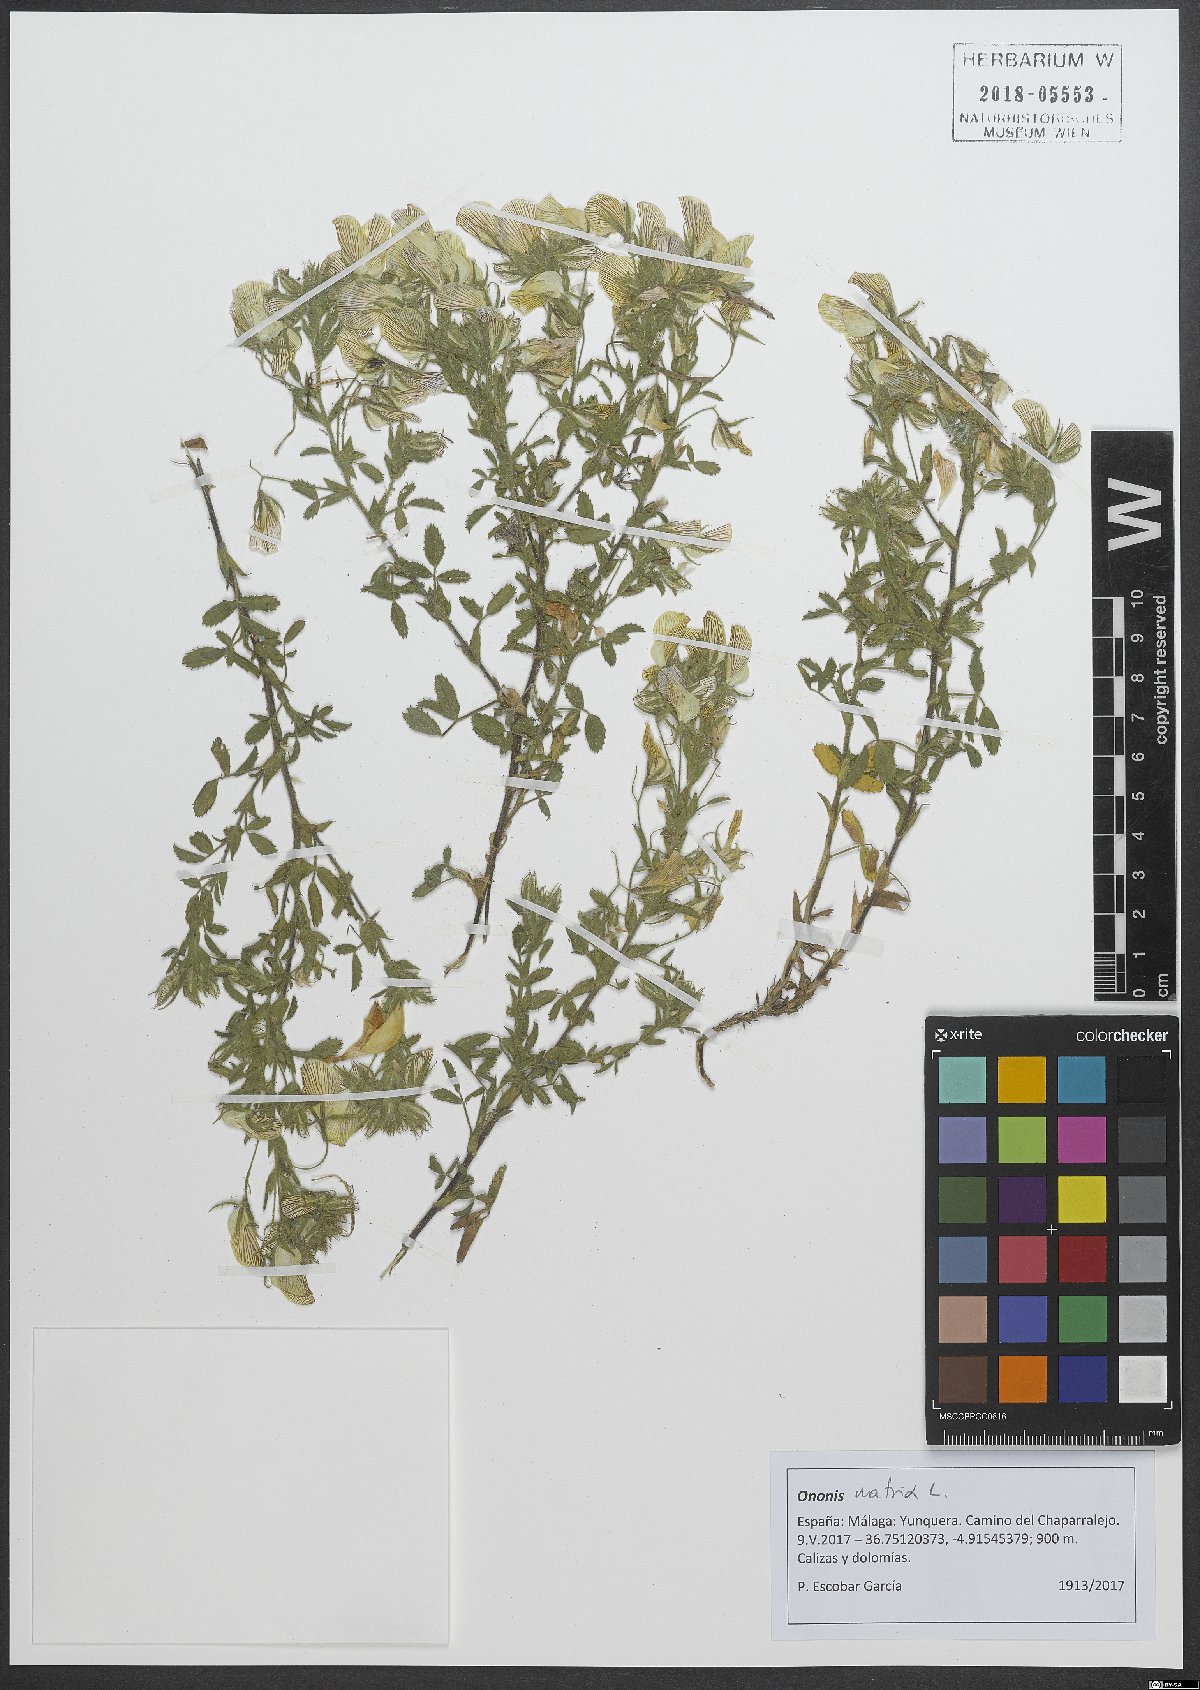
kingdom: Plantae
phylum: Tracheophyta
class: Magnoliopsida
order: Fabales
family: Fabaceae
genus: Ononis
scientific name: Ononis natrix
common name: Yellow restharrow
